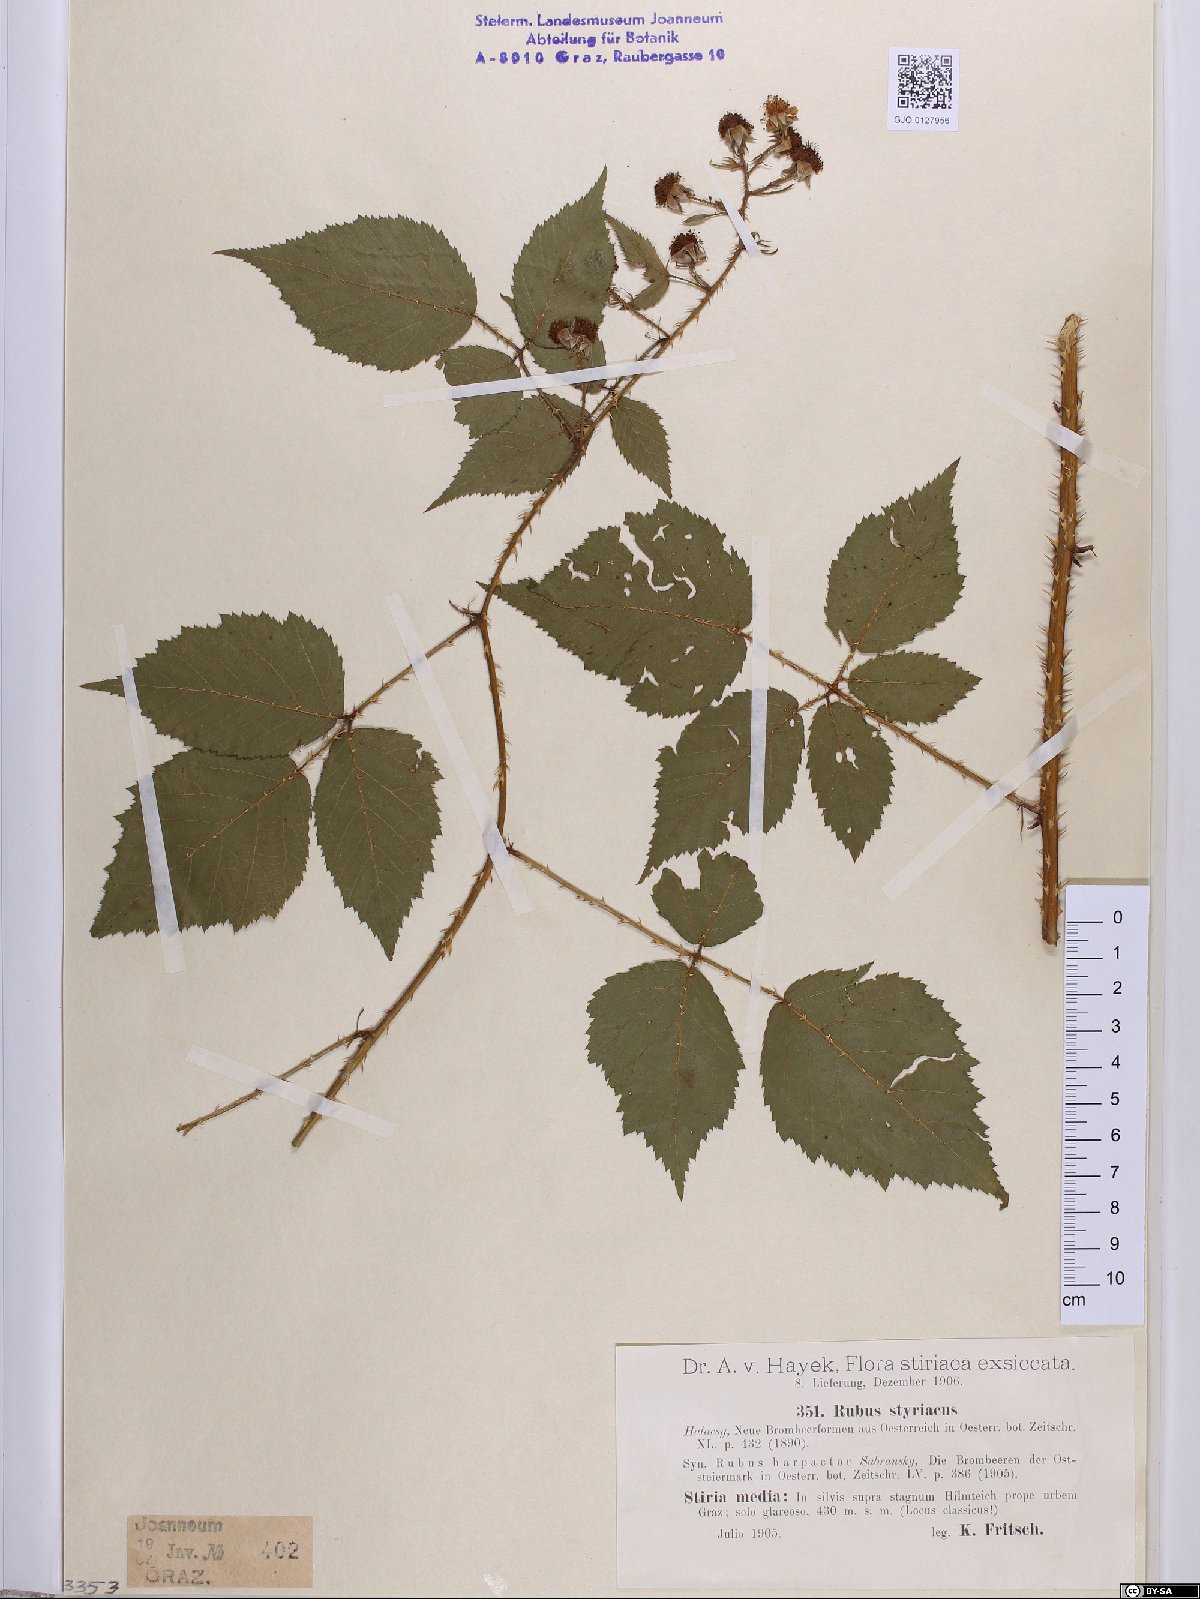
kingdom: Plantae
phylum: Tracheophyta
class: Magnoliopsida
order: Rosales
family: Rosaceae
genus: Rubus
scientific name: Rubus styriacus
